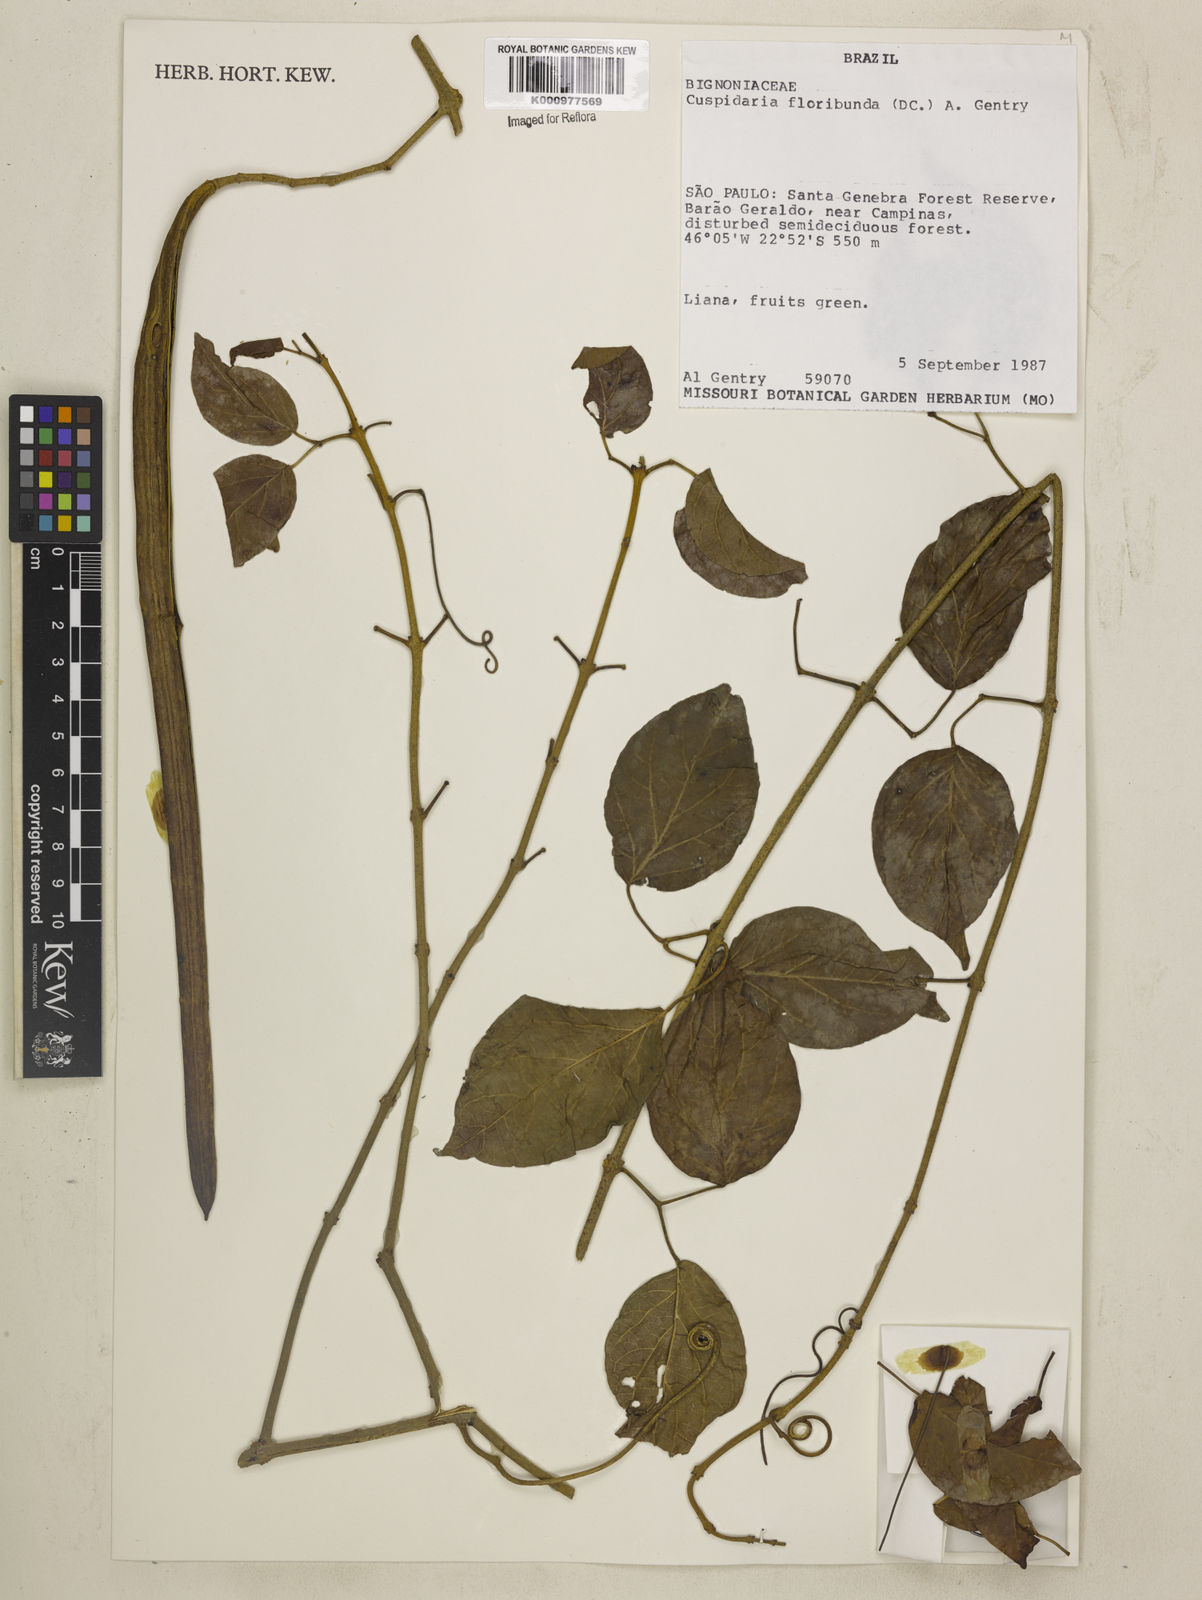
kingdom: Plantae
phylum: Tracheophyta
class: Magnoliopsida
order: Lamiales
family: Bignoniaceae
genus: Cuspidaria
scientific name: Cuspidaria floribunda
